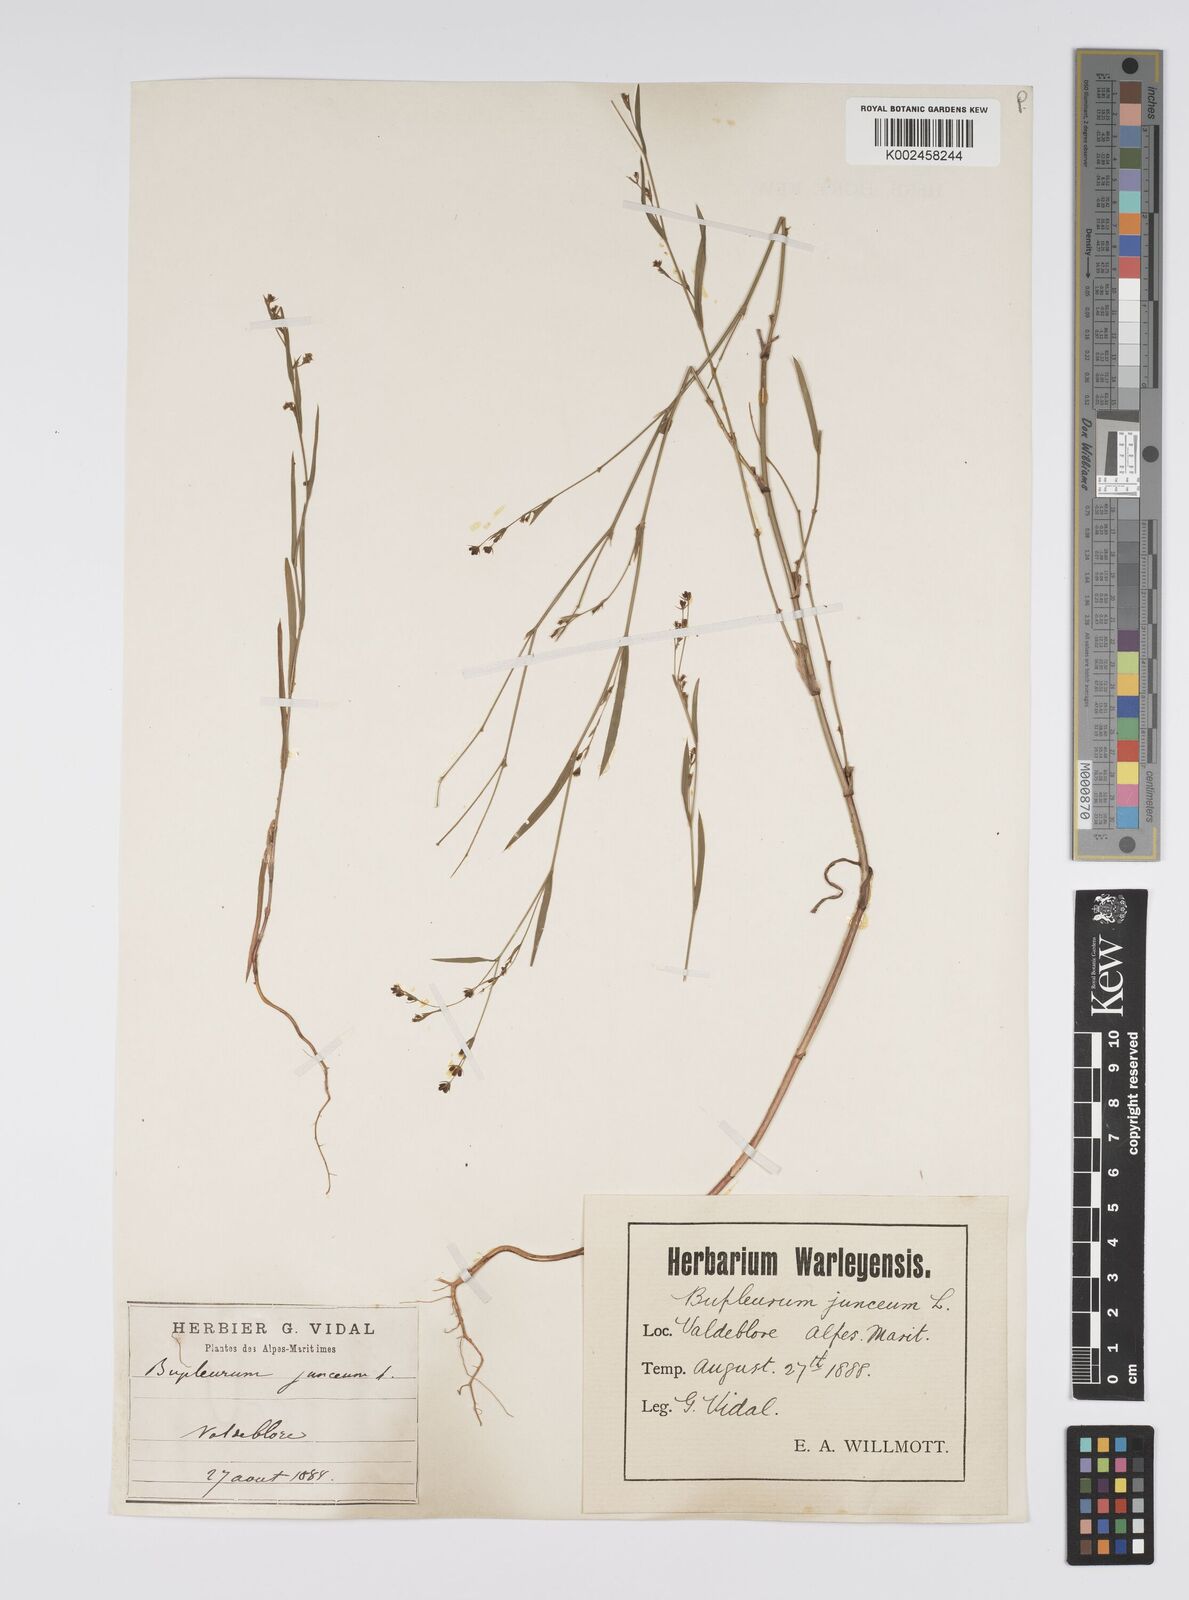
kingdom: Plantae
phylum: Tracheophyta
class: Magnoliopsida
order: Apiales
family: Apiaceae
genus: Bupleurum
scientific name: Bupleurum praealtum
